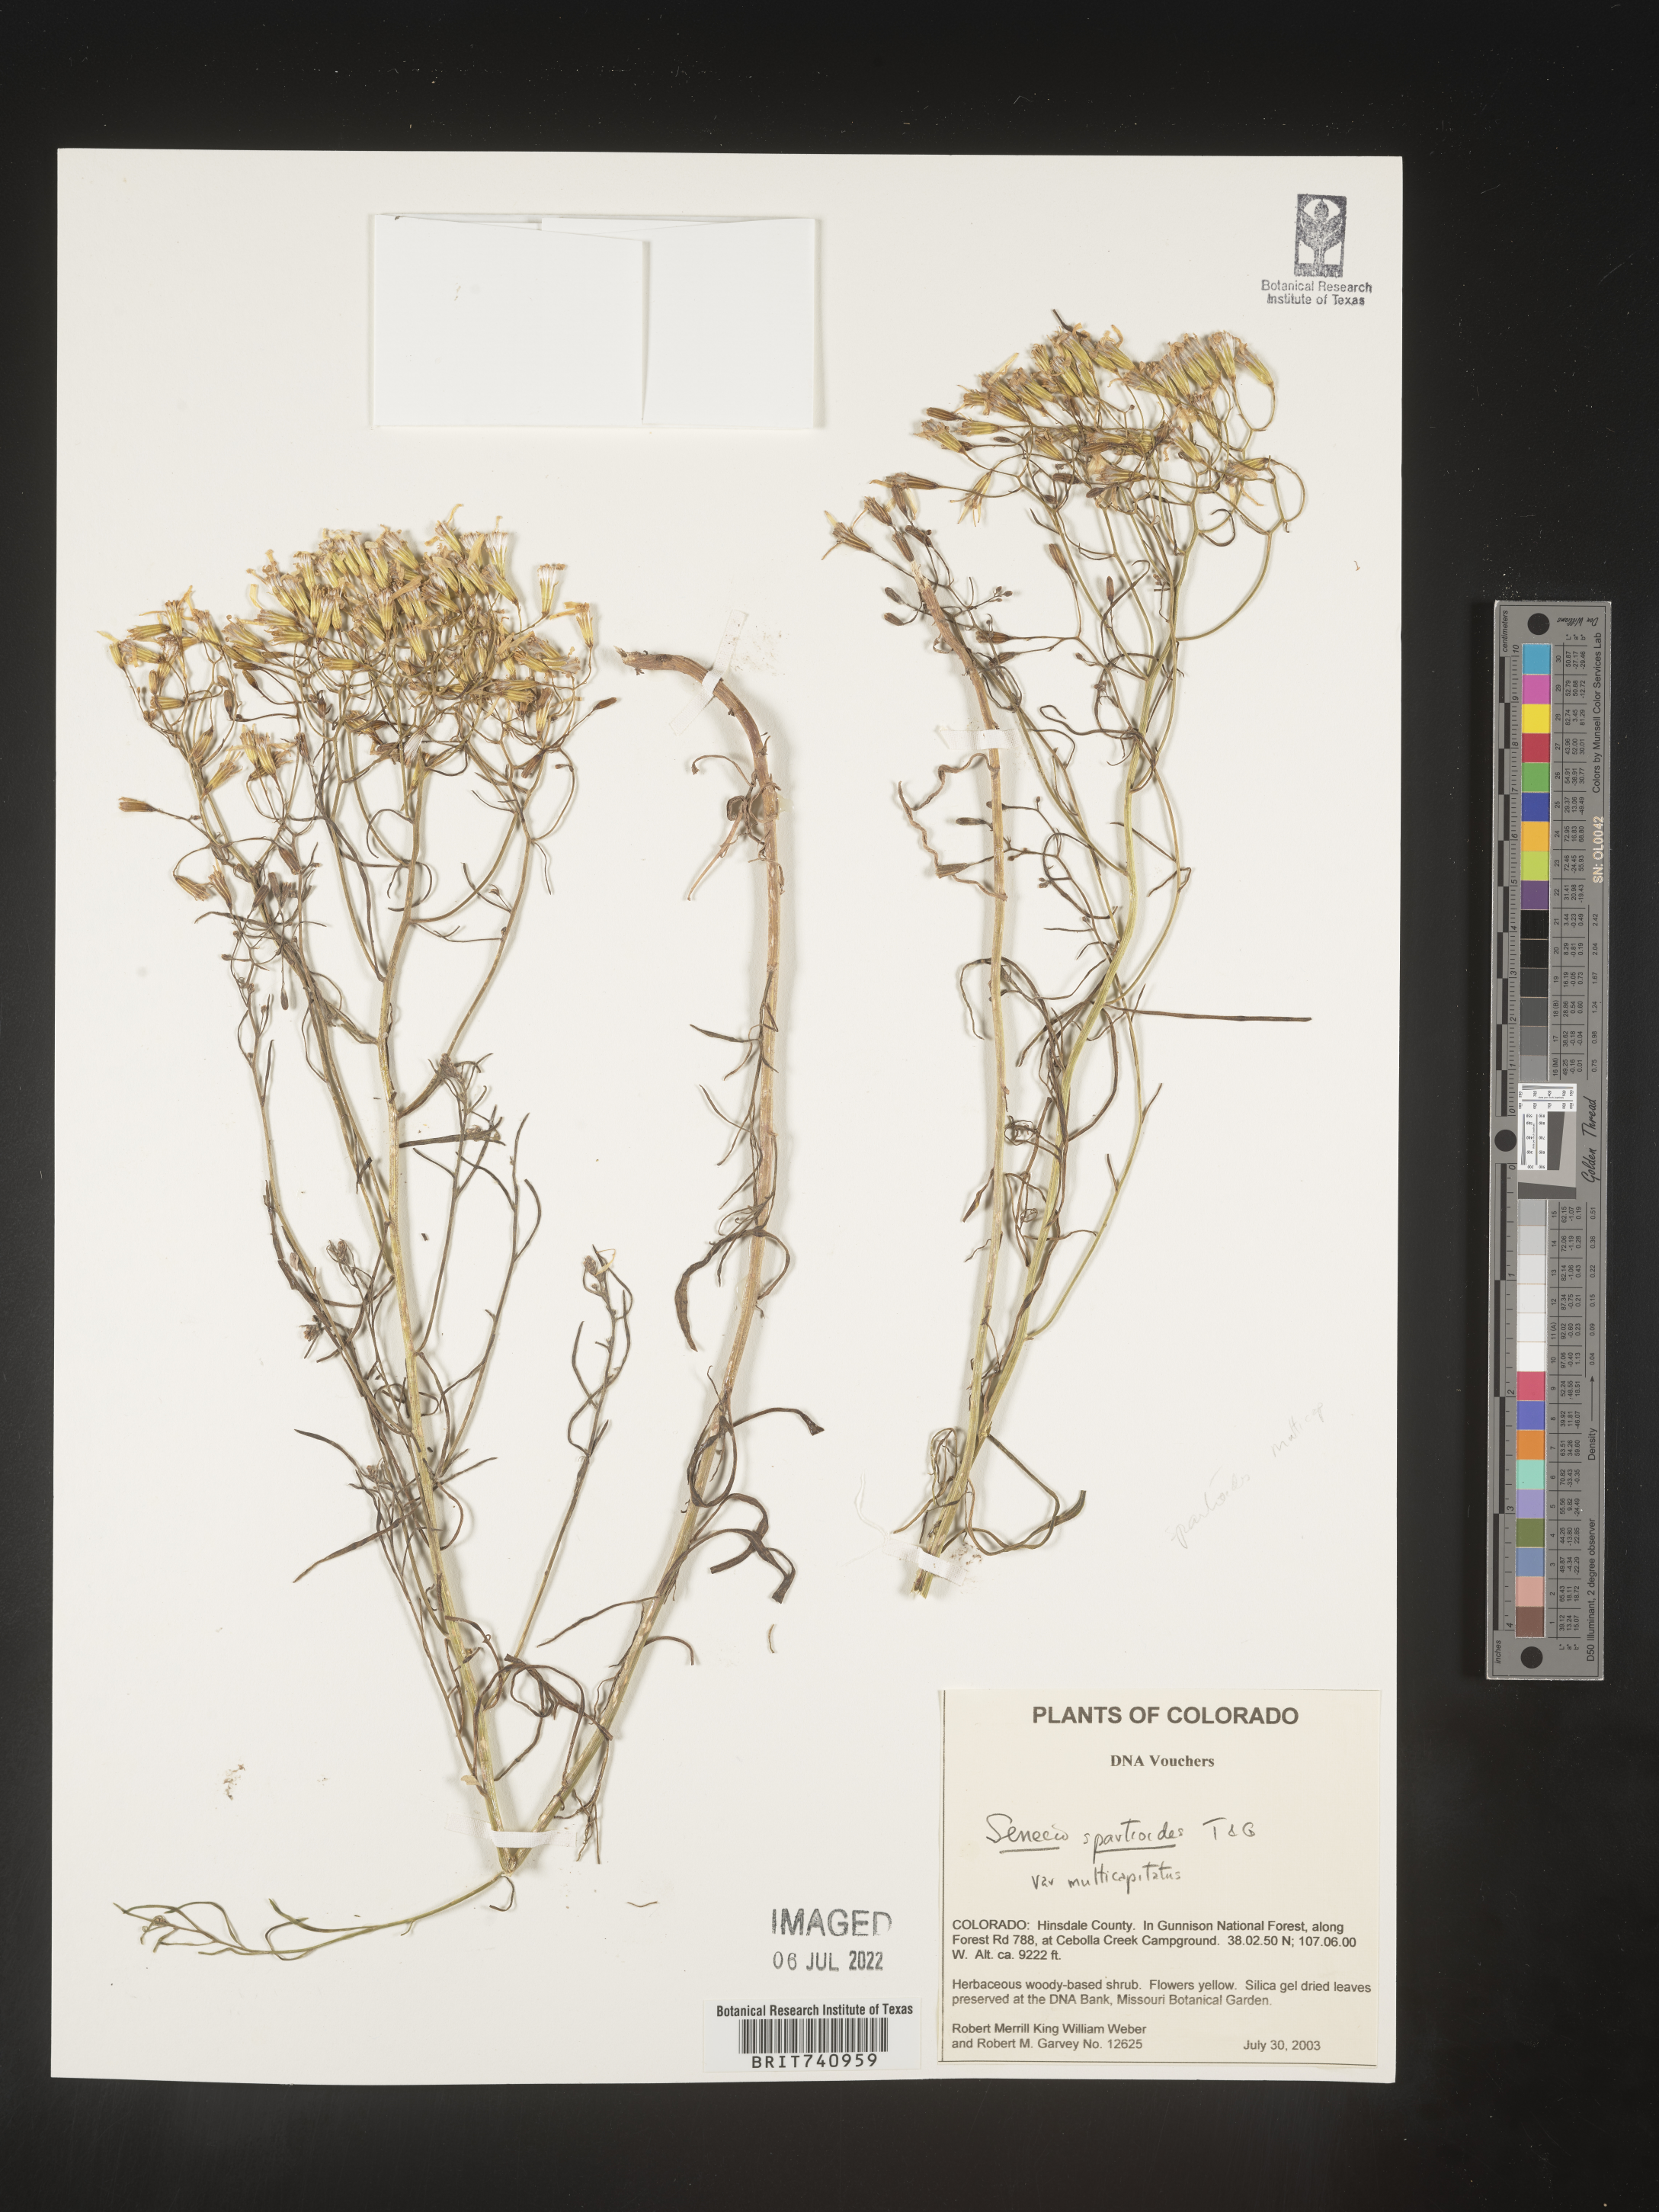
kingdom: Plantae
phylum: Tracheophyta
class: Magnoliopsida
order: Asterales
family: Asteraceae
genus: Senecio
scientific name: Senecio spartioides
